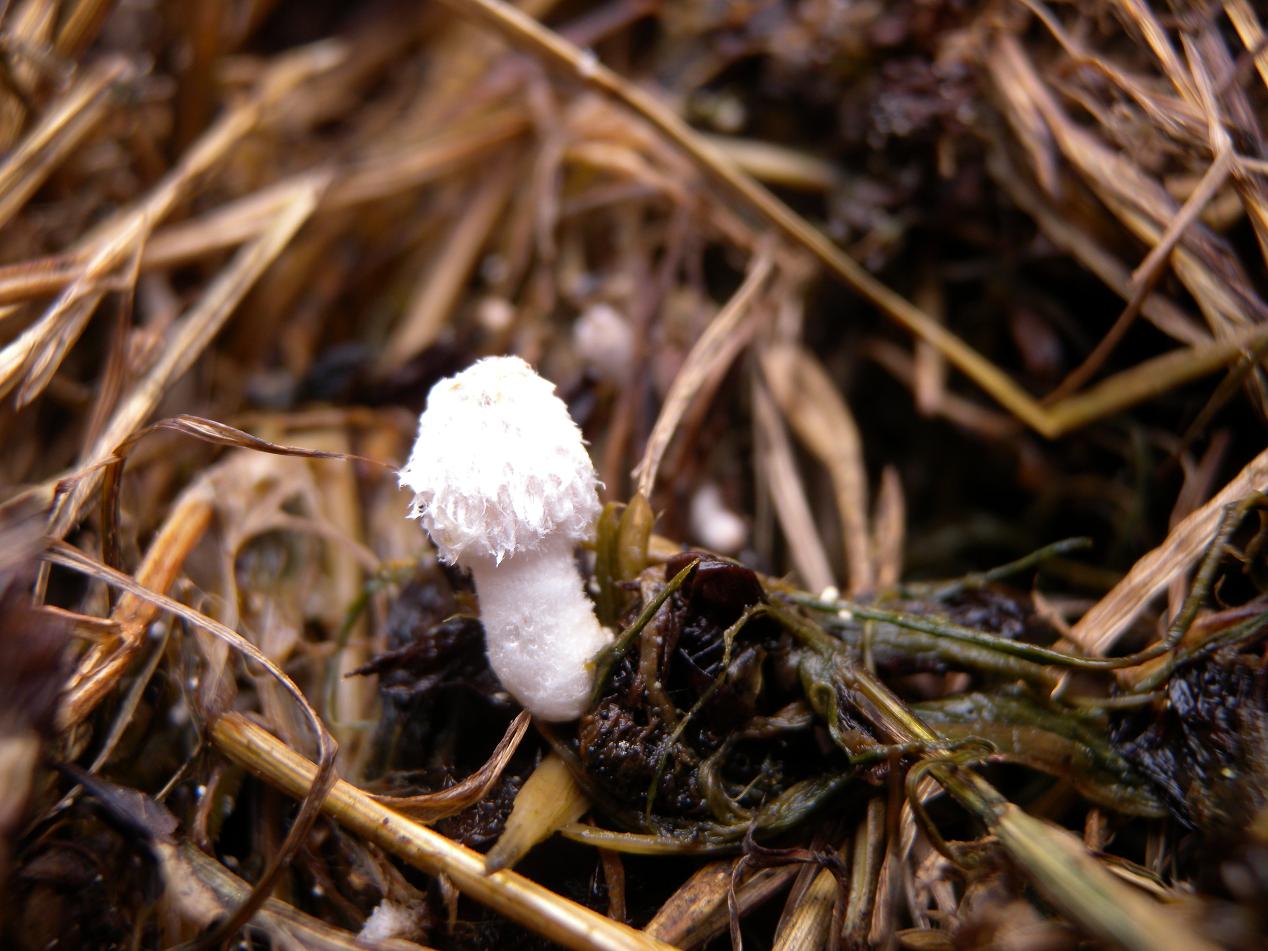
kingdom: Fungi
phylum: Basidiomycota
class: Agaricomycetes
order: Agaricales
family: Psathyrellaceae
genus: Coprinopsis
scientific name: Coprinopsis geesterani
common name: dunet blækhat
